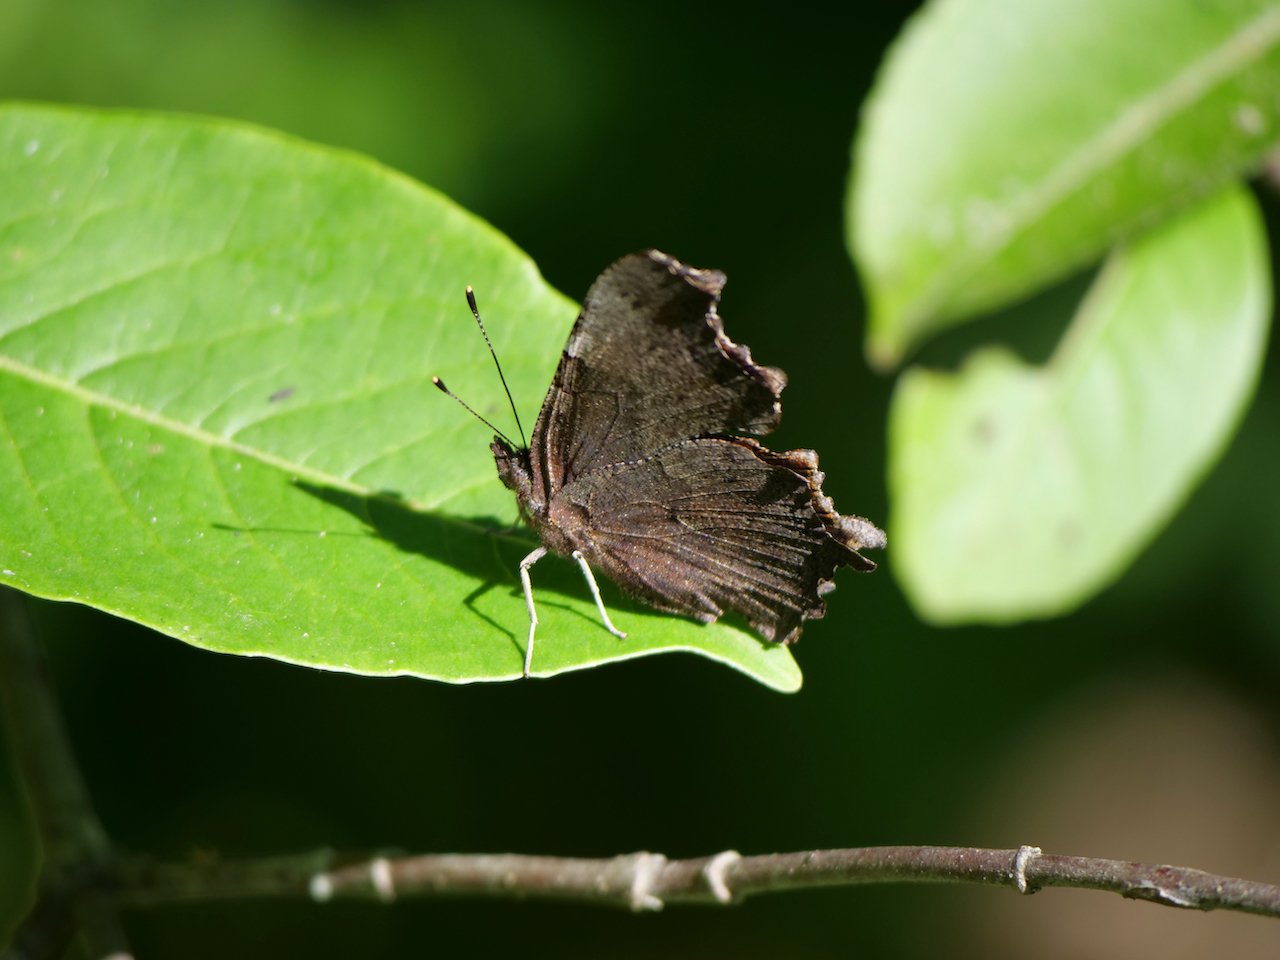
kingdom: Animalia
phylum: Arthropoda
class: Insecta
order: Lepidoptera
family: Nymphalidae
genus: Polygonia
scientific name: Polygonia
